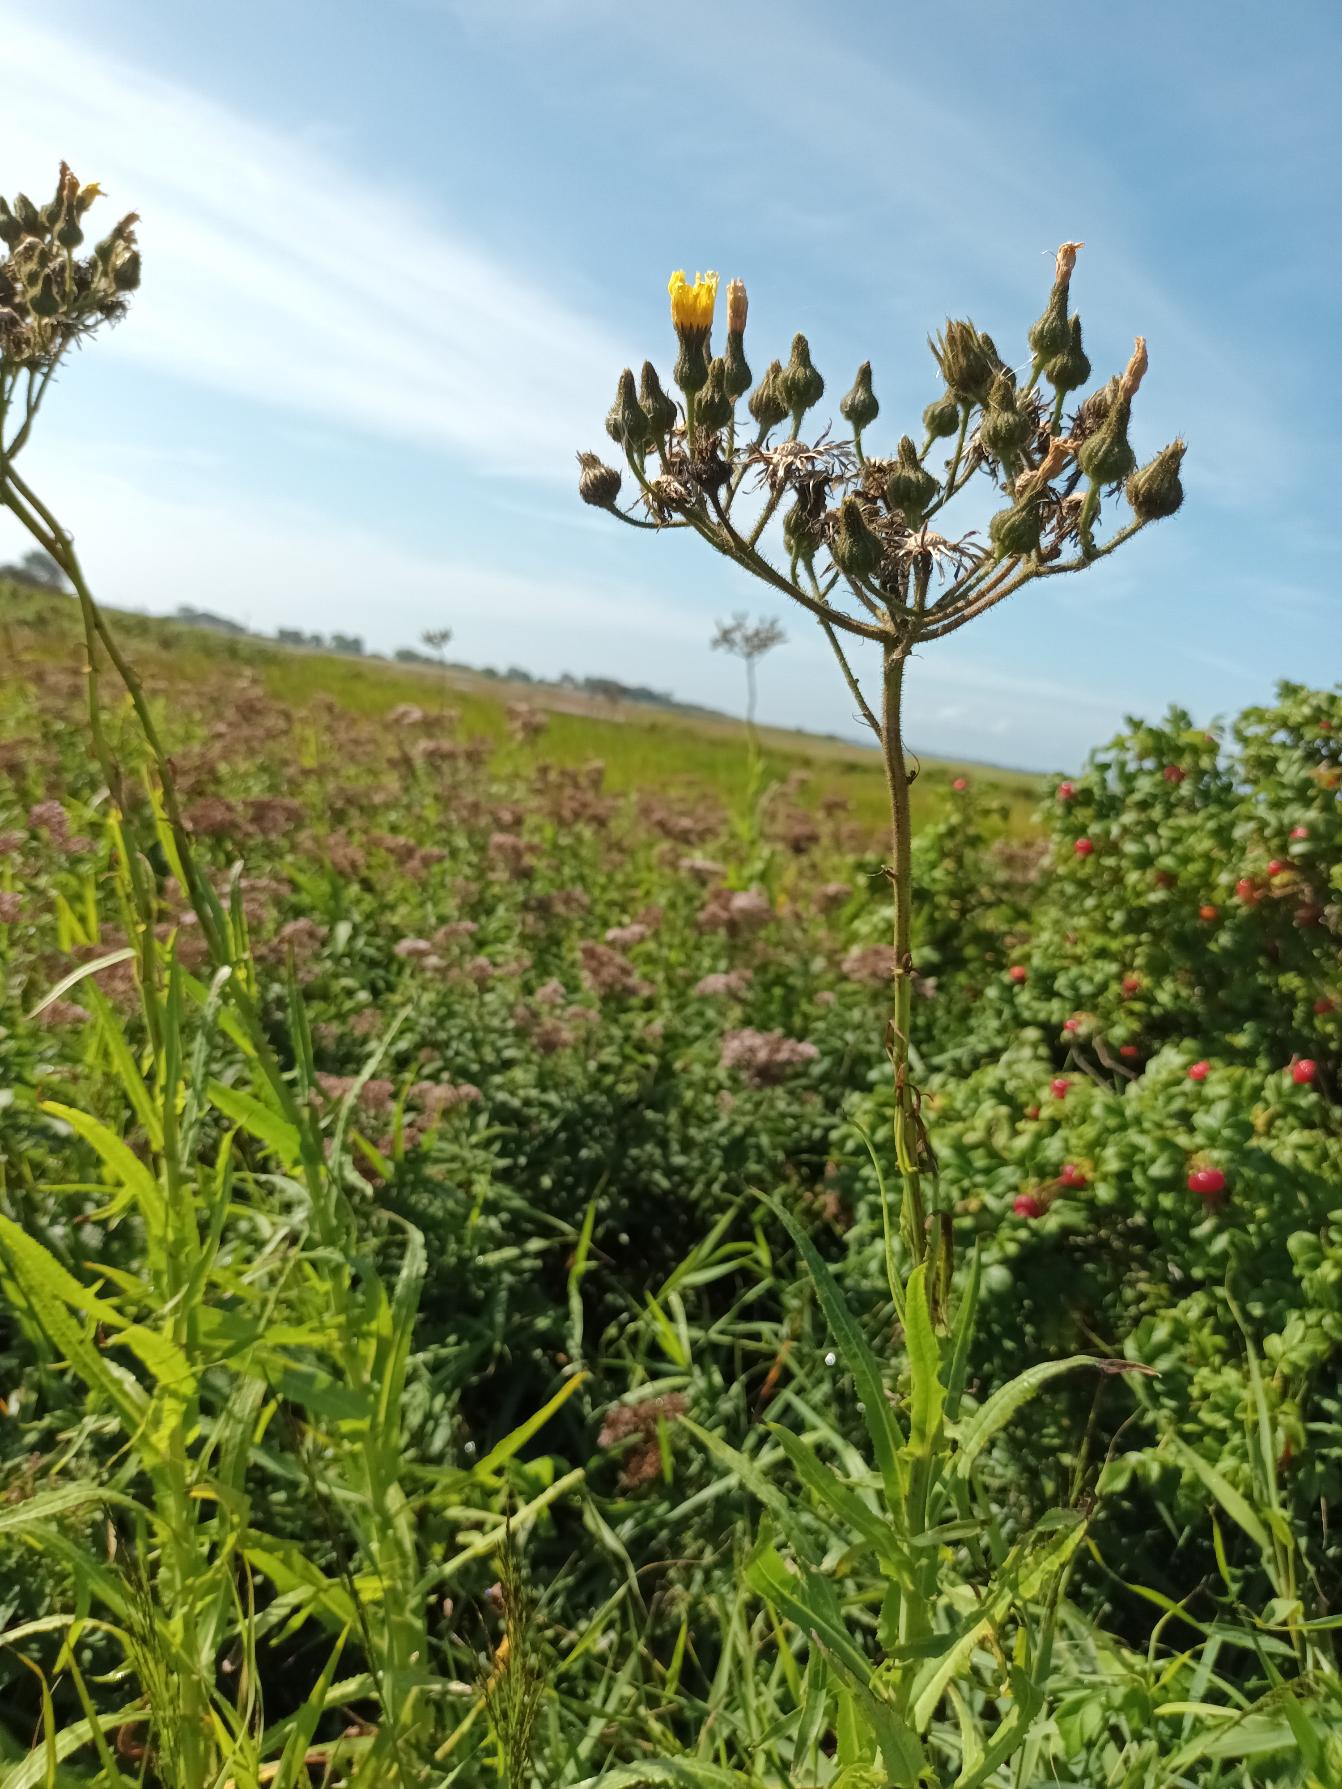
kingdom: Plantae
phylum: Tracheophyta
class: Magnoliopsida
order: Asterales
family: Asteraceae
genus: Sonchus
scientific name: Sonchus palustris
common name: Kær-svinemælk
